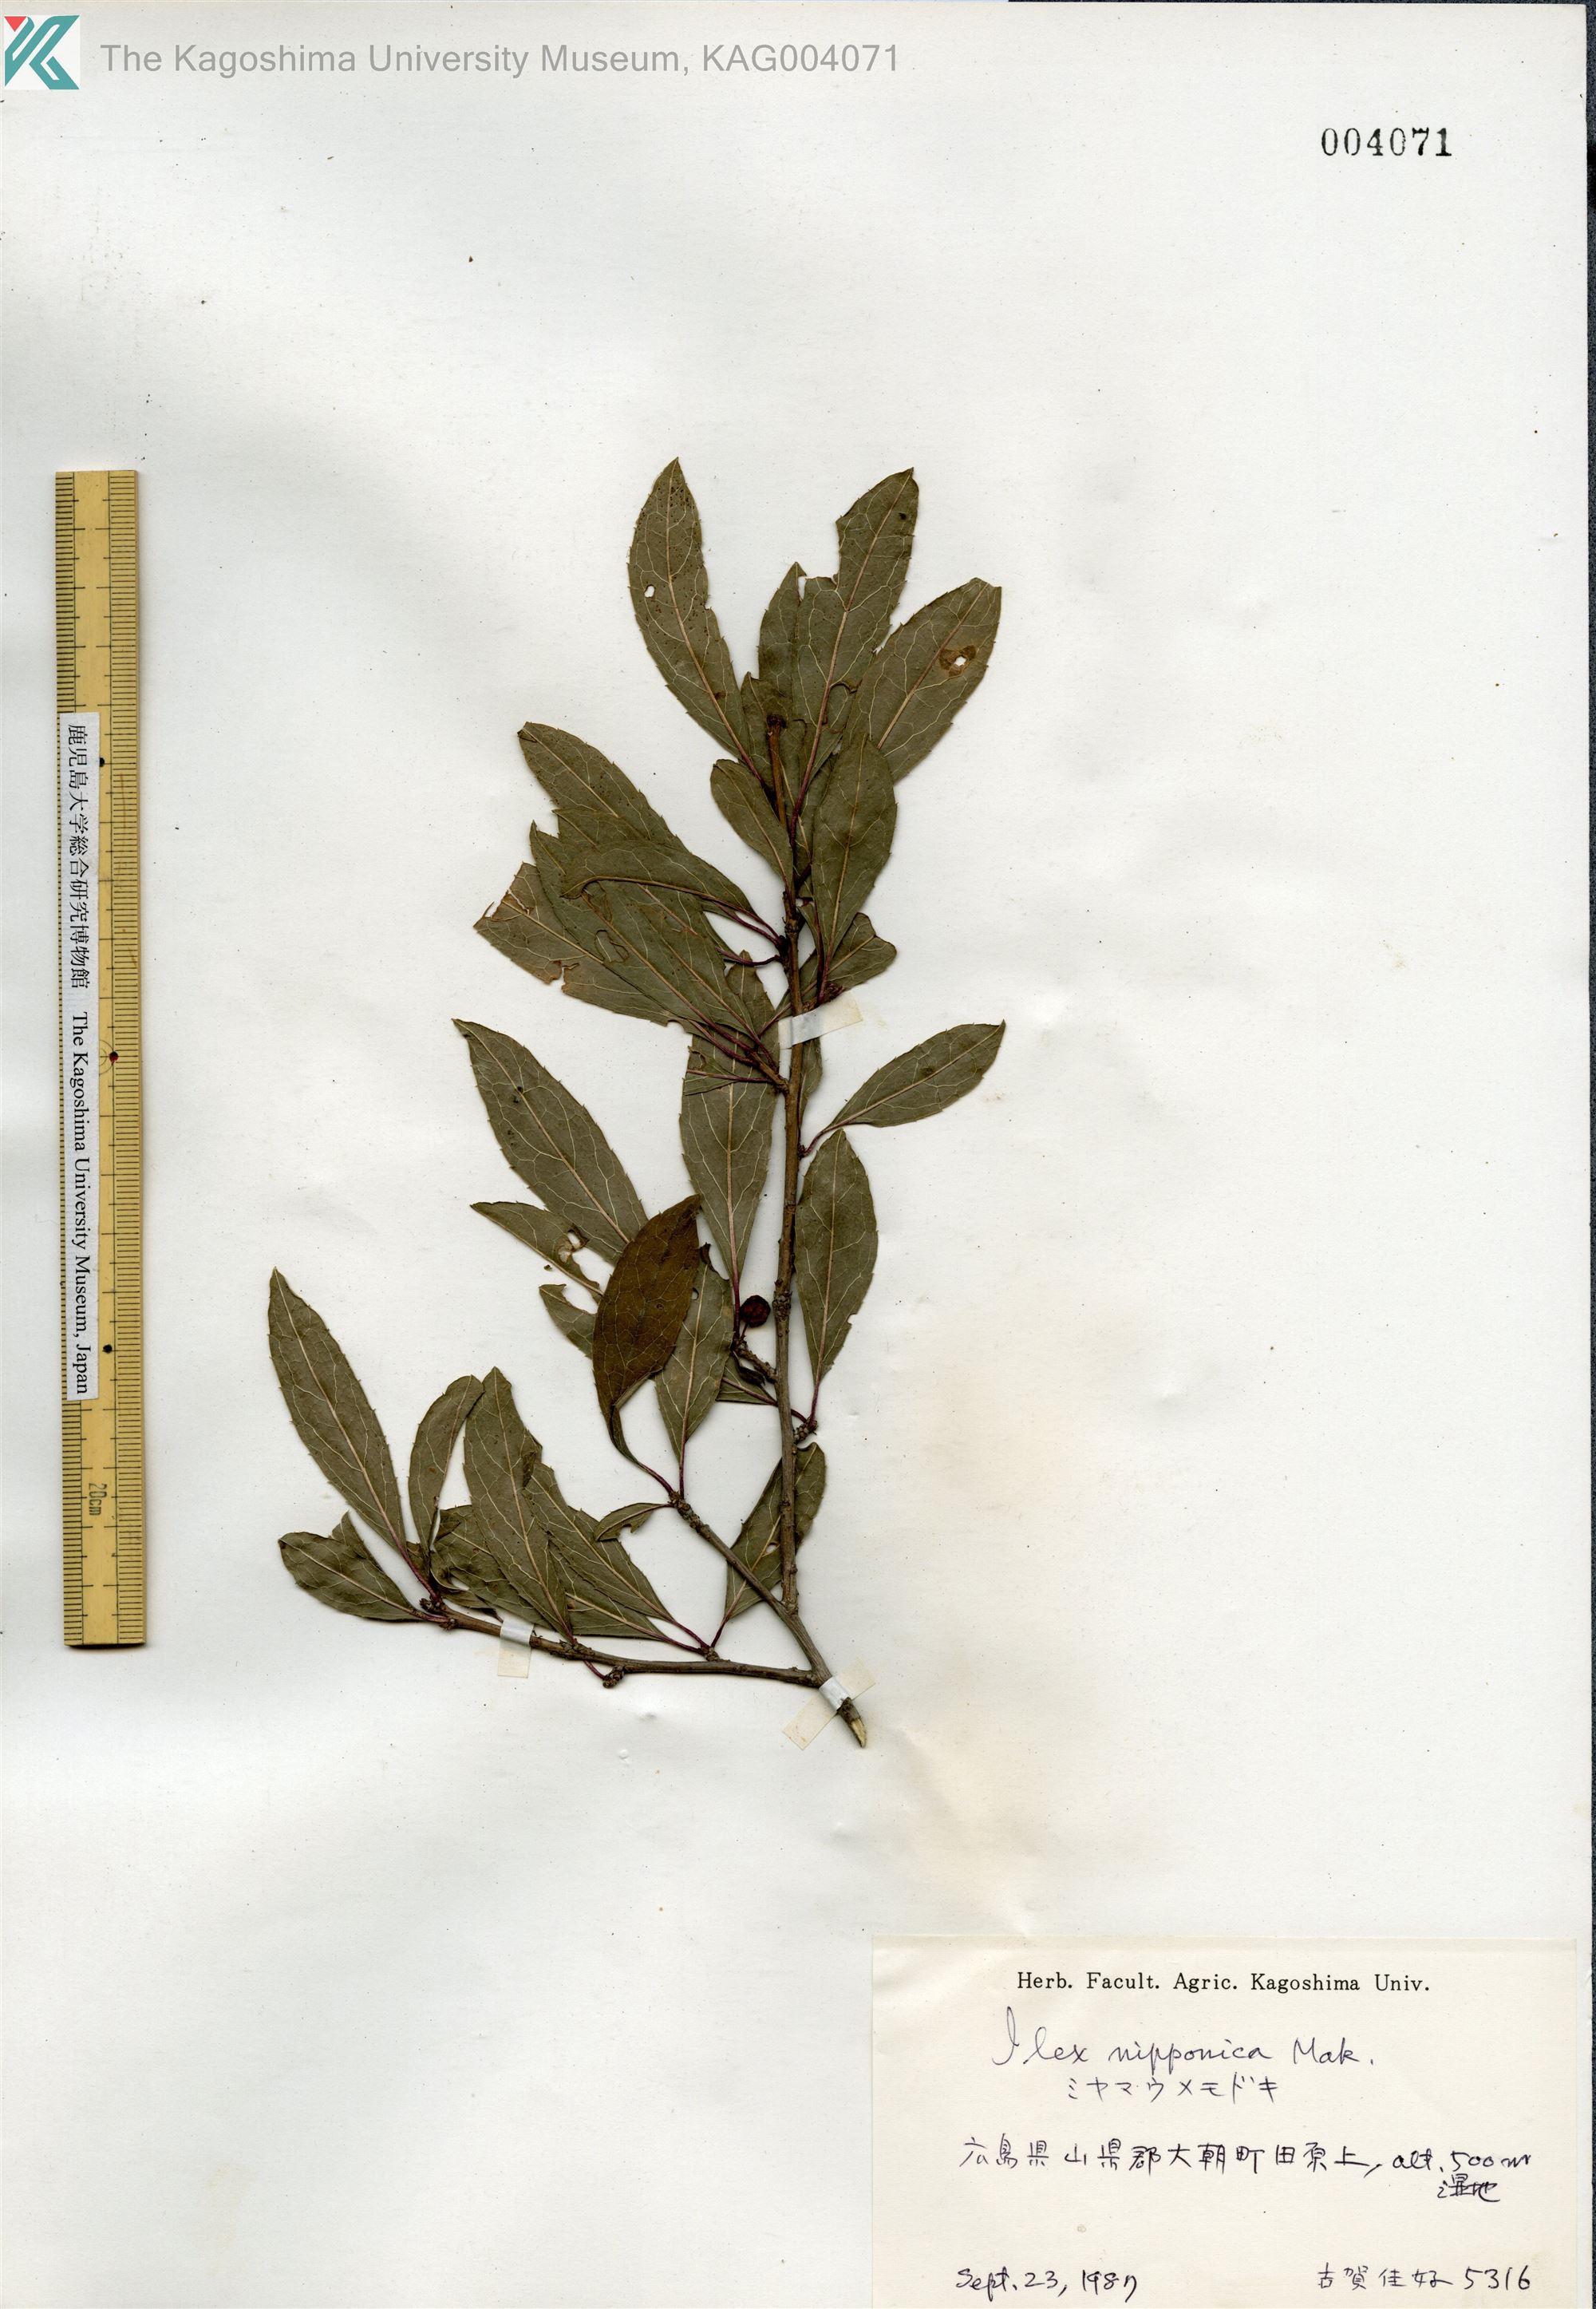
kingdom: Plantae
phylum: Tracheophyta
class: Magnoliopsida
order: Aquifoliales
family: Aquifoliaceae
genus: Ilex
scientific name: Ilex nipponica
